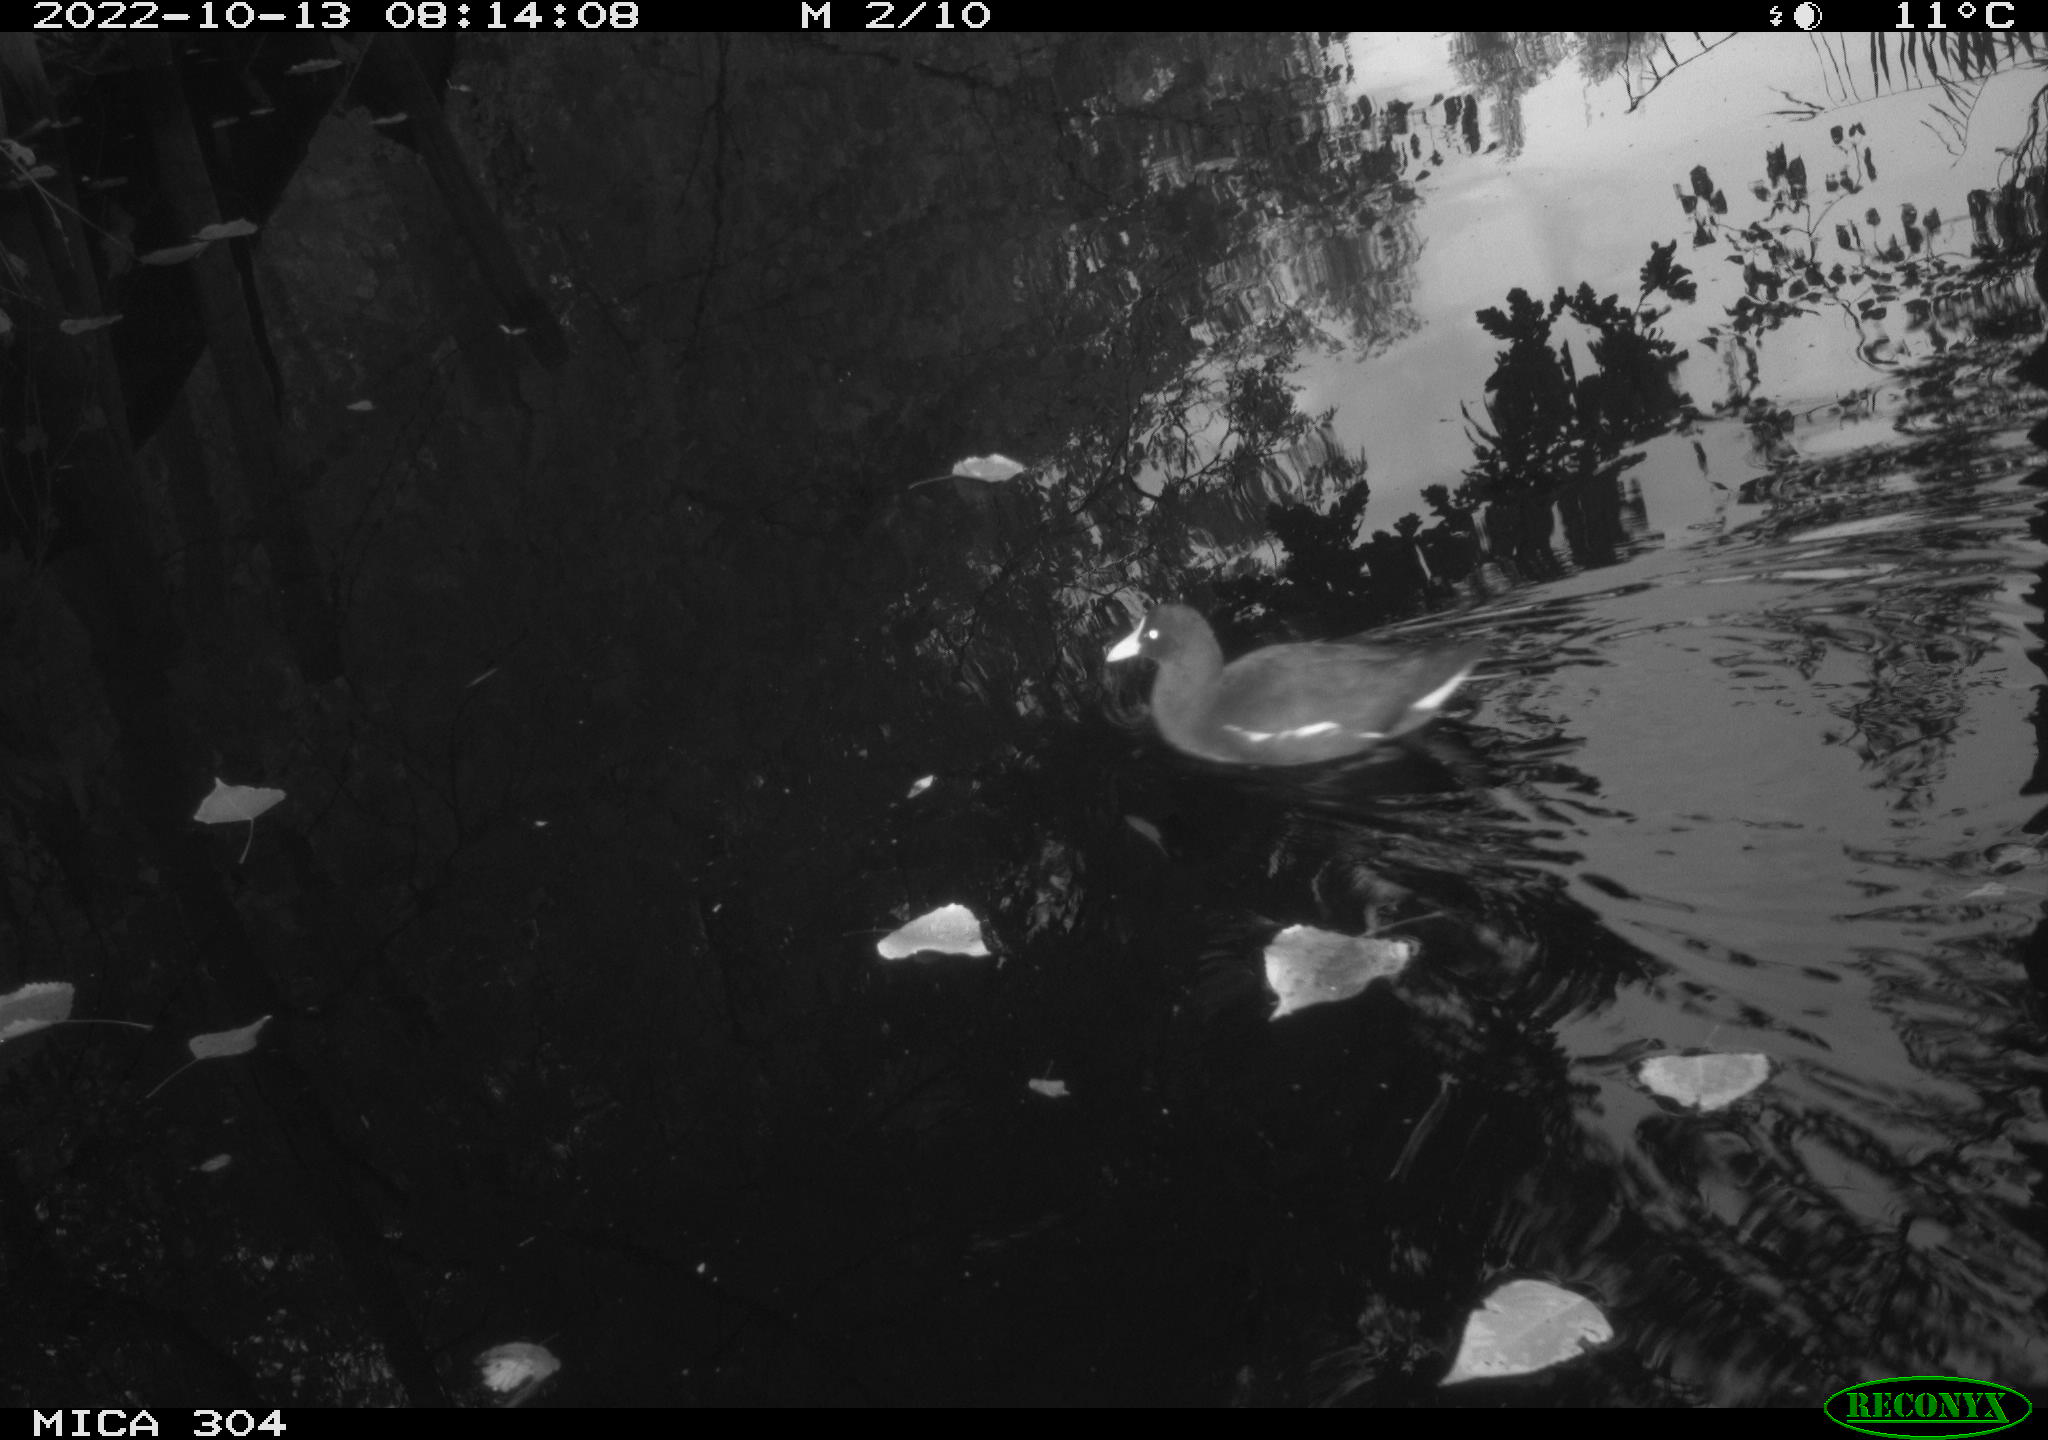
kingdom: Animalia
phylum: Chordata
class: Aves
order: Gruiformes
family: Rallidae
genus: Gallinula
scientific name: Gallinula chloropus
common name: Common moorhen
